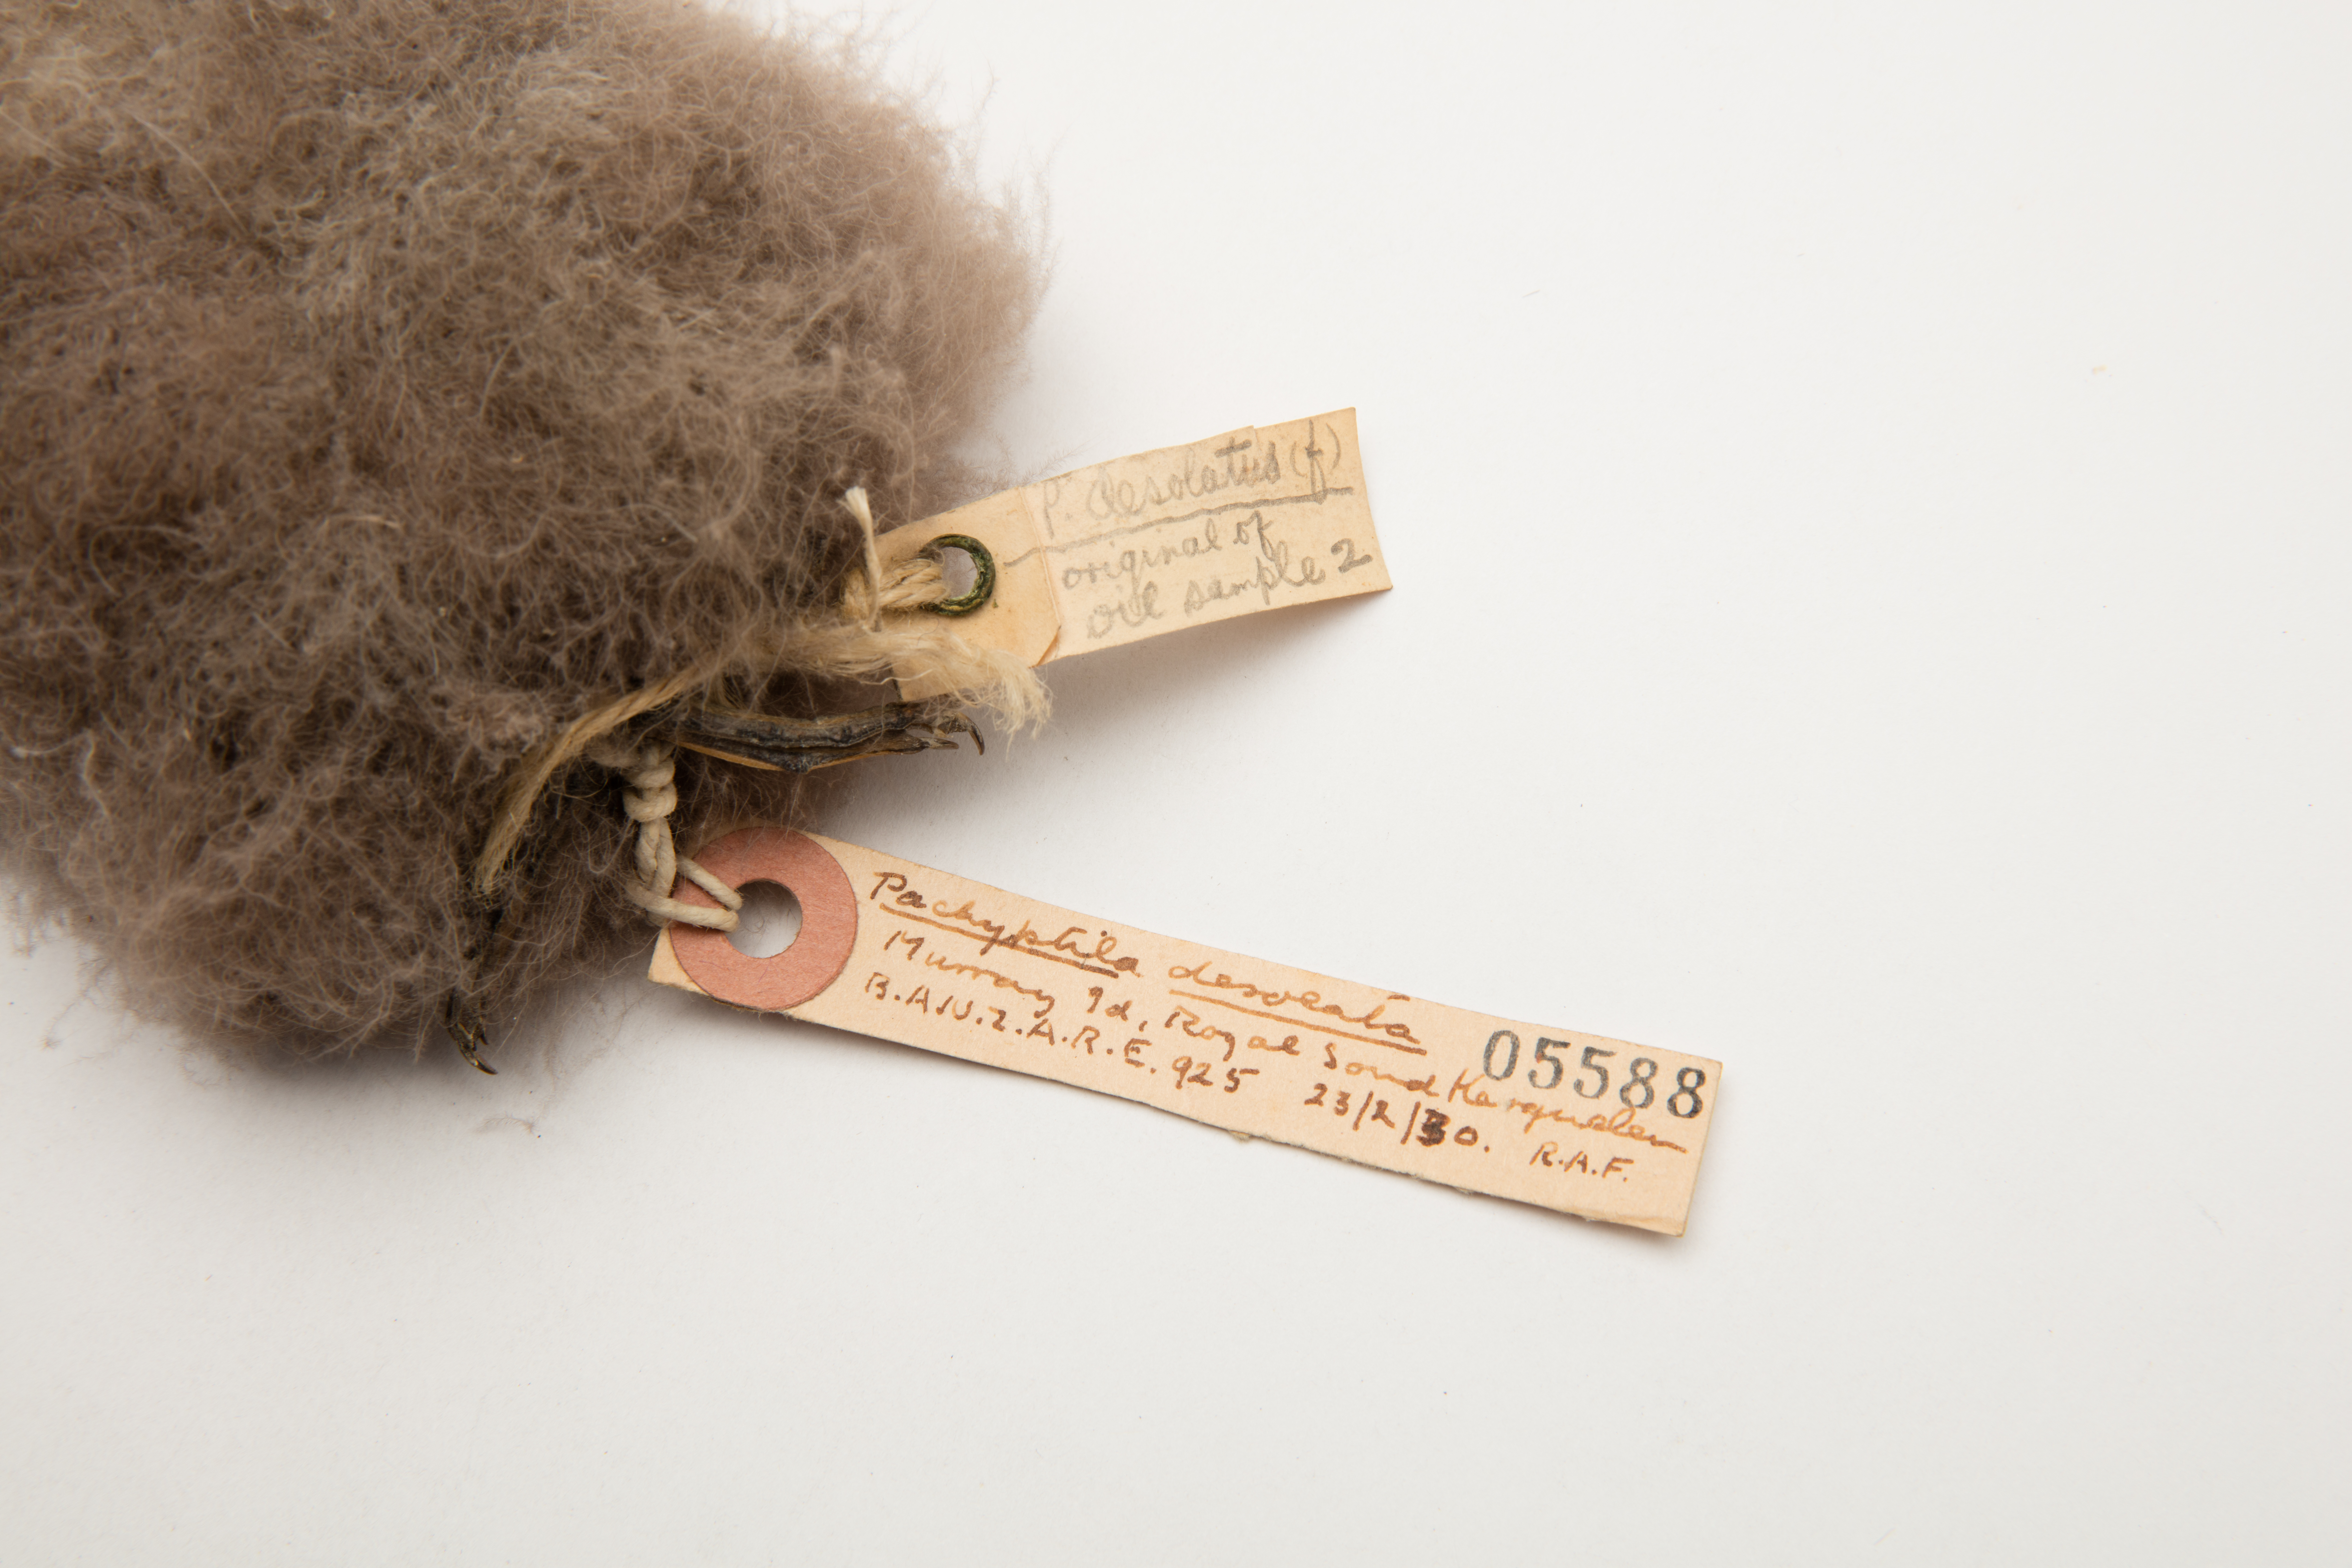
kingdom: Animalia
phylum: Chordata
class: Aves
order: Procellariiformes
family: Procellariidae
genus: Pachyptila
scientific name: Pachyptila desolata
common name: Antarctic prion
